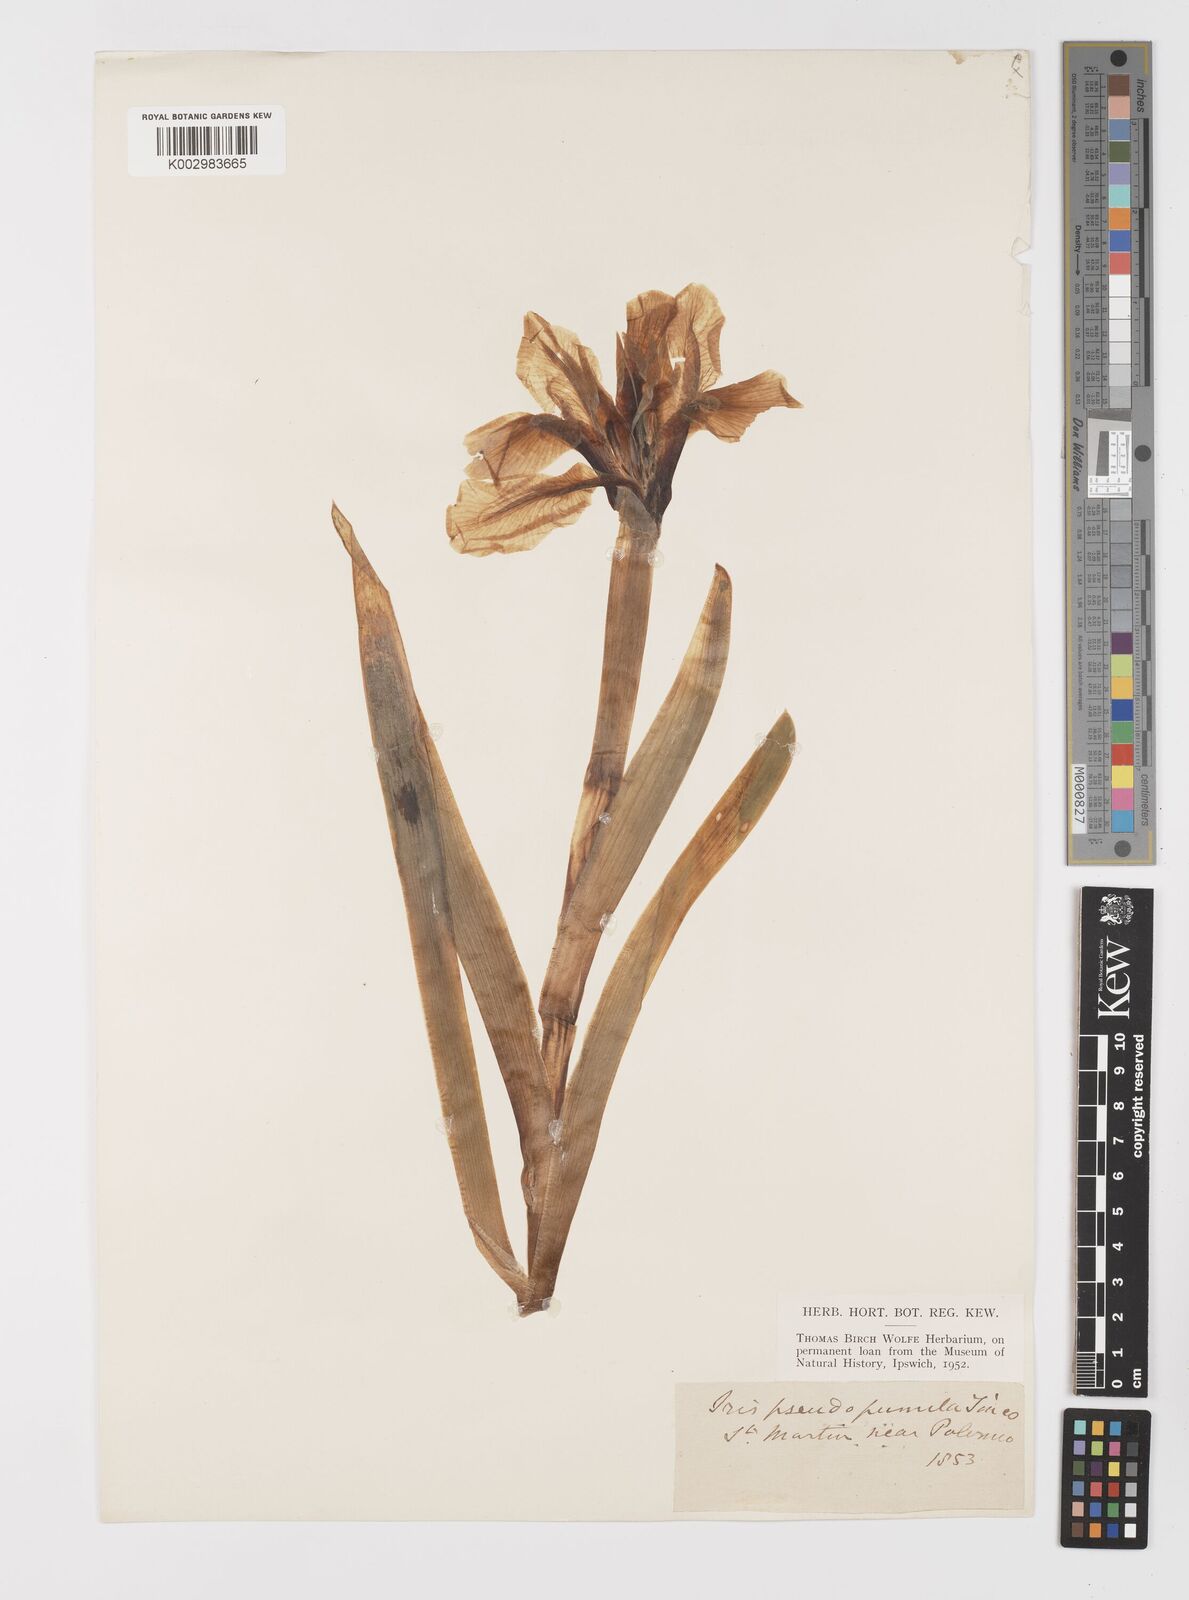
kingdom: Plantae
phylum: Tracheophyta
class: Liliopsida
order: Asparagales
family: Iridaceae
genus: Iris
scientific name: Iris pseudopumila
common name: Southern dwarf iris
